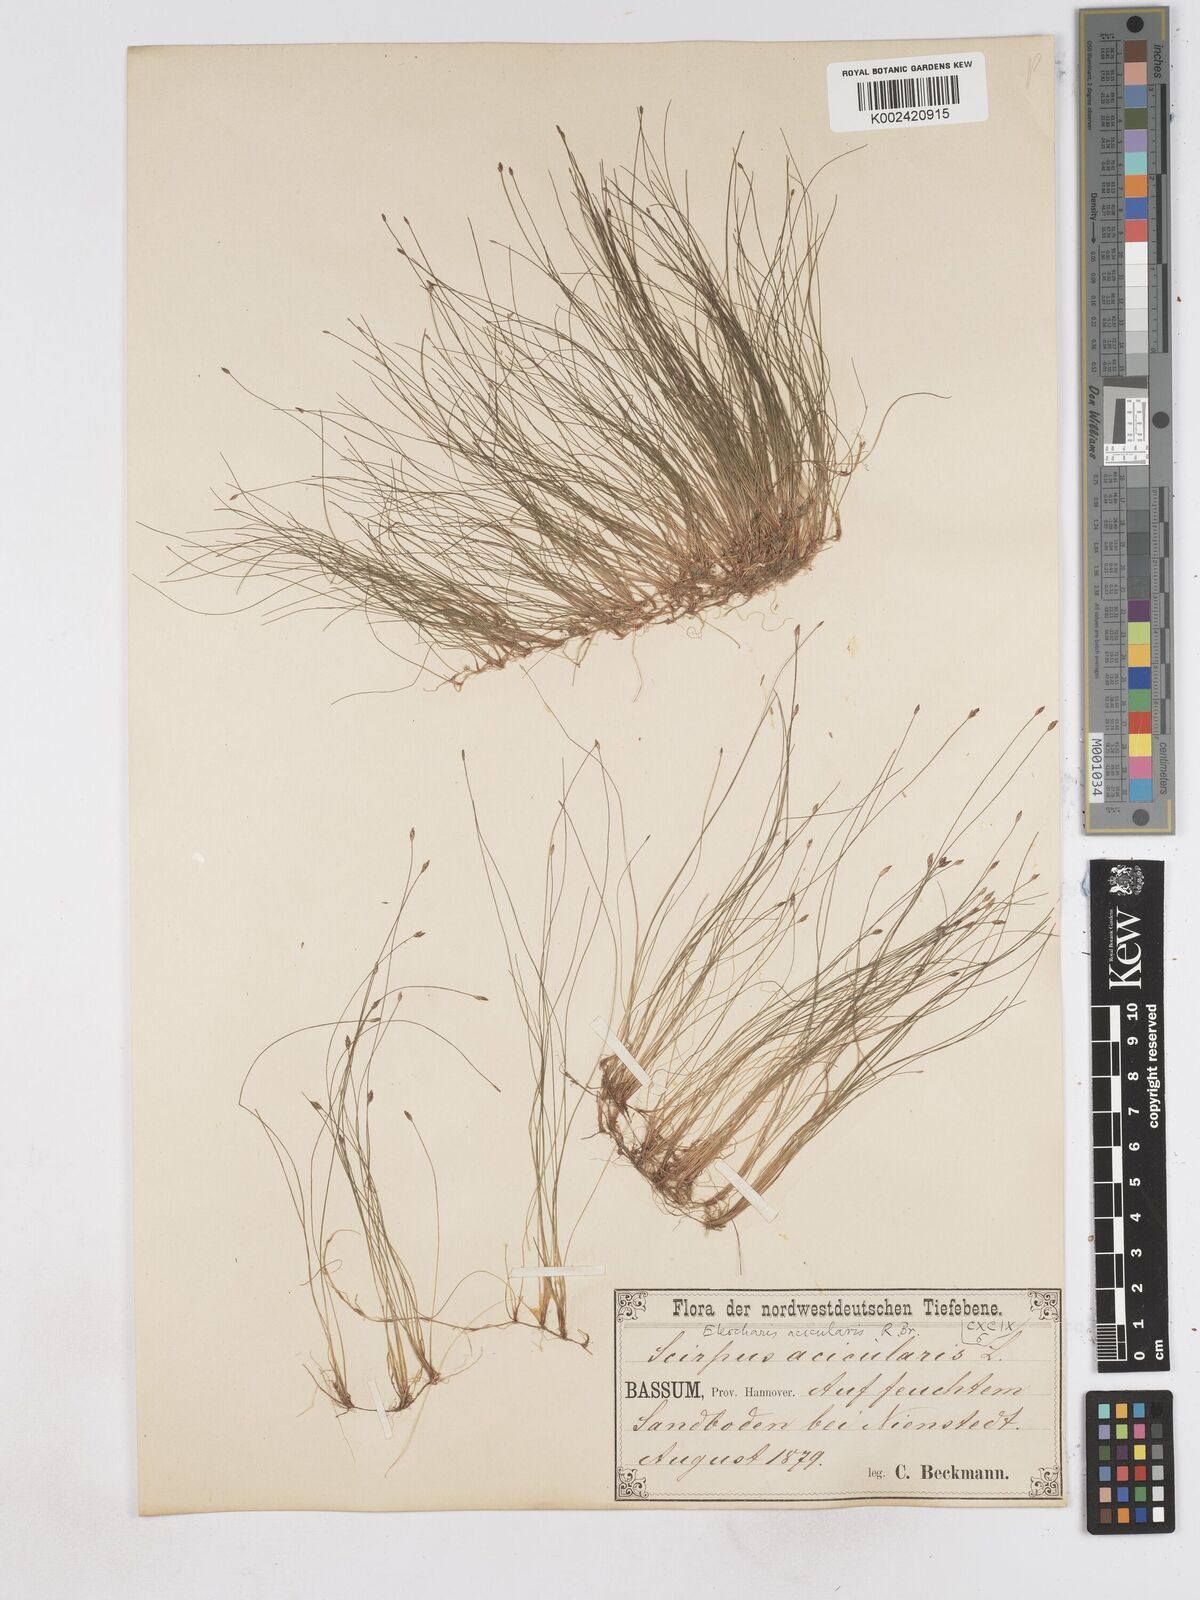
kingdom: Plantae
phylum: Tracheophyta
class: Liliopsida
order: Poales
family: Cyperaceae
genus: Eleocharis
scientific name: Eleocharis acicularis
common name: Needle spike-rush
